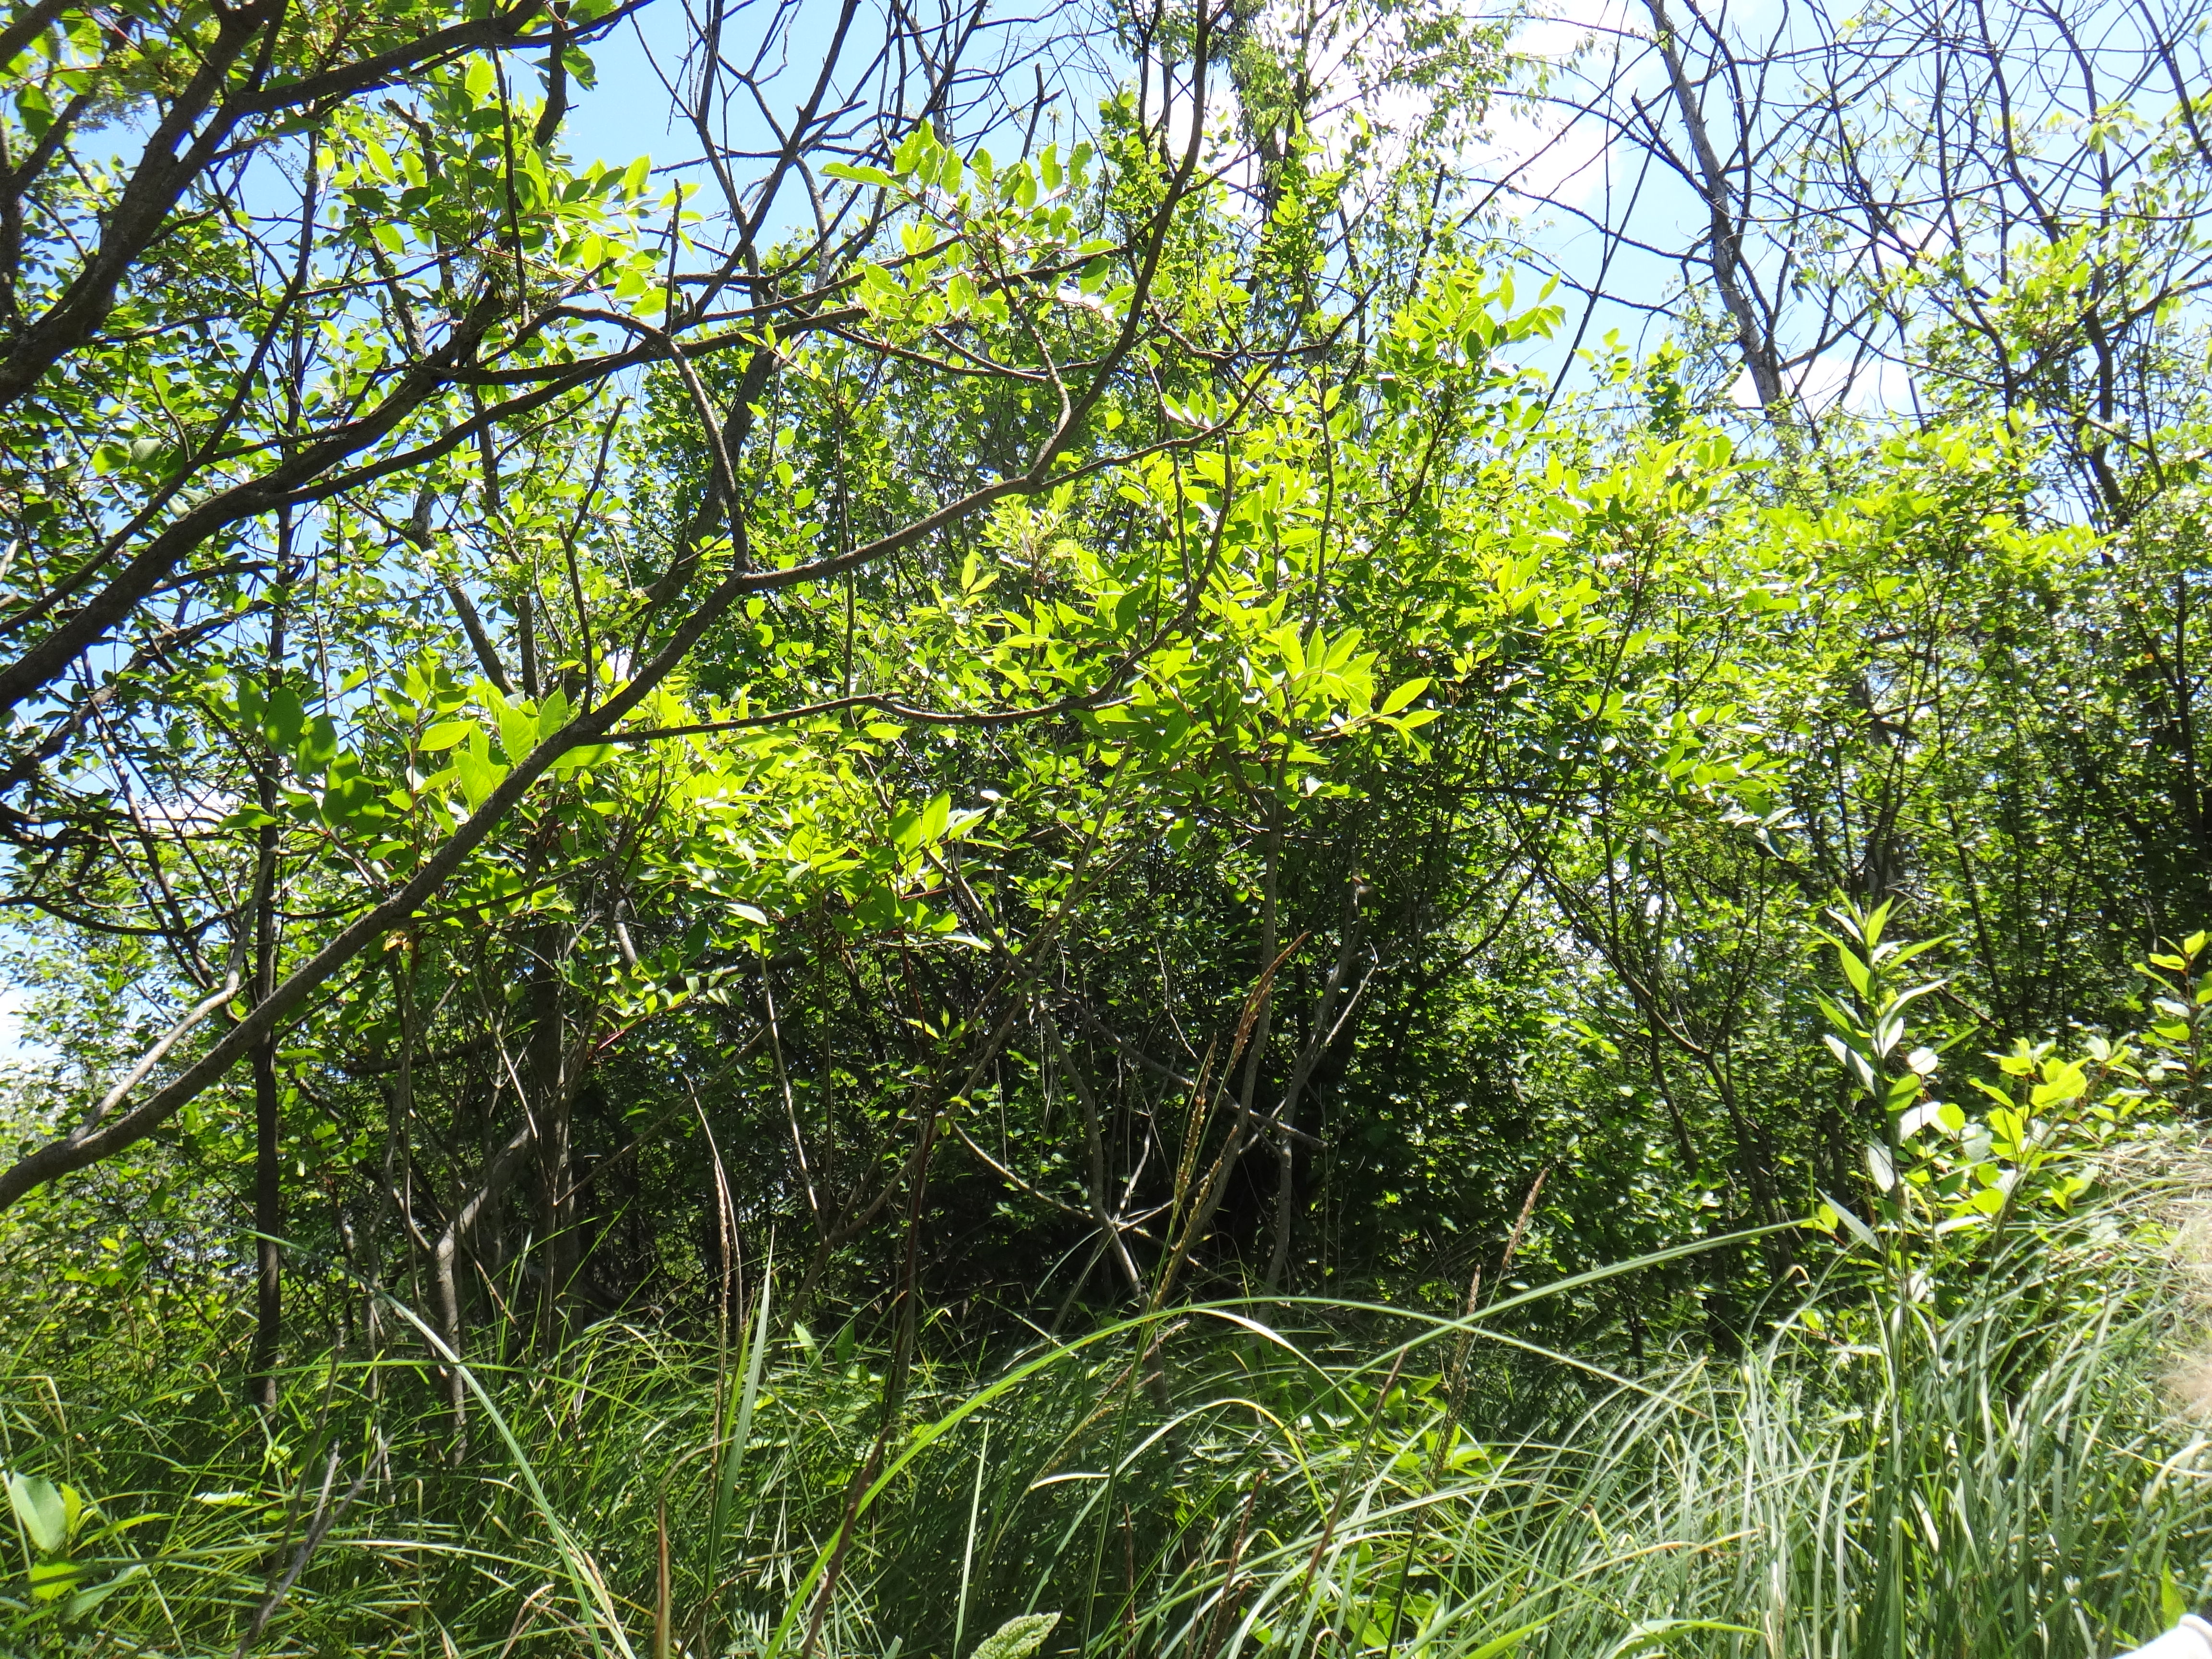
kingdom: Plantae
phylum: Tracheophyta
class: Magnoliopsida
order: Asterales
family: Asteraceae
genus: Symphyotrichum
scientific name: Symphyotrichum lanceolatum
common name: Panicled aster
